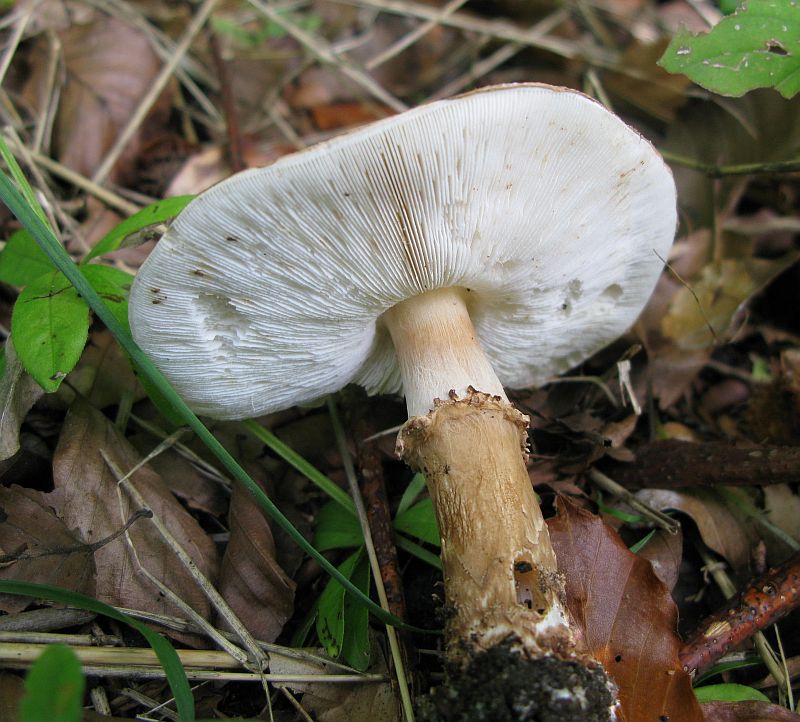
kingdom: Fungi
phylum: Basidiomycota
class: Agaricomycetes
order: Agaricales
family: Agaricaceae
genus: Echinoderma
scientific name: Echinoderma asperum
